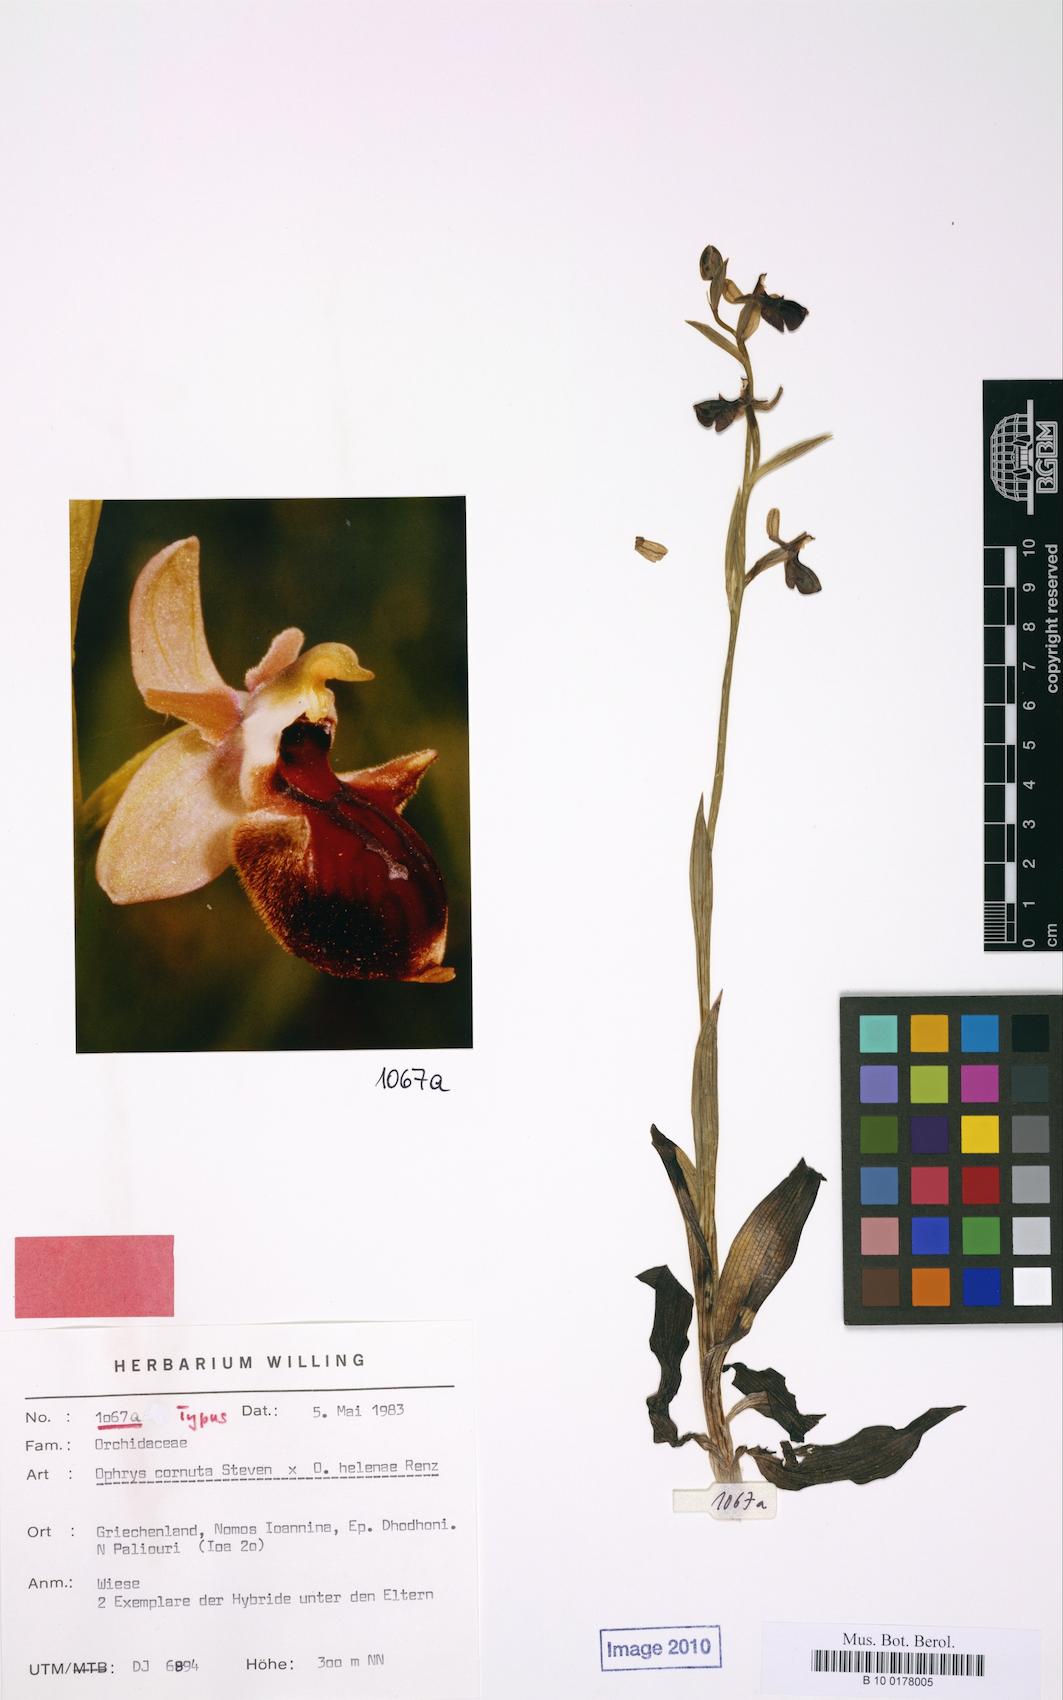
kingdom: Plantae
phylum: Tracheophyta
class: Liliopsida
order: Asparagales
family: Orchidaceae
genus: Ophrys
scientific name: Ophrys scolopax
